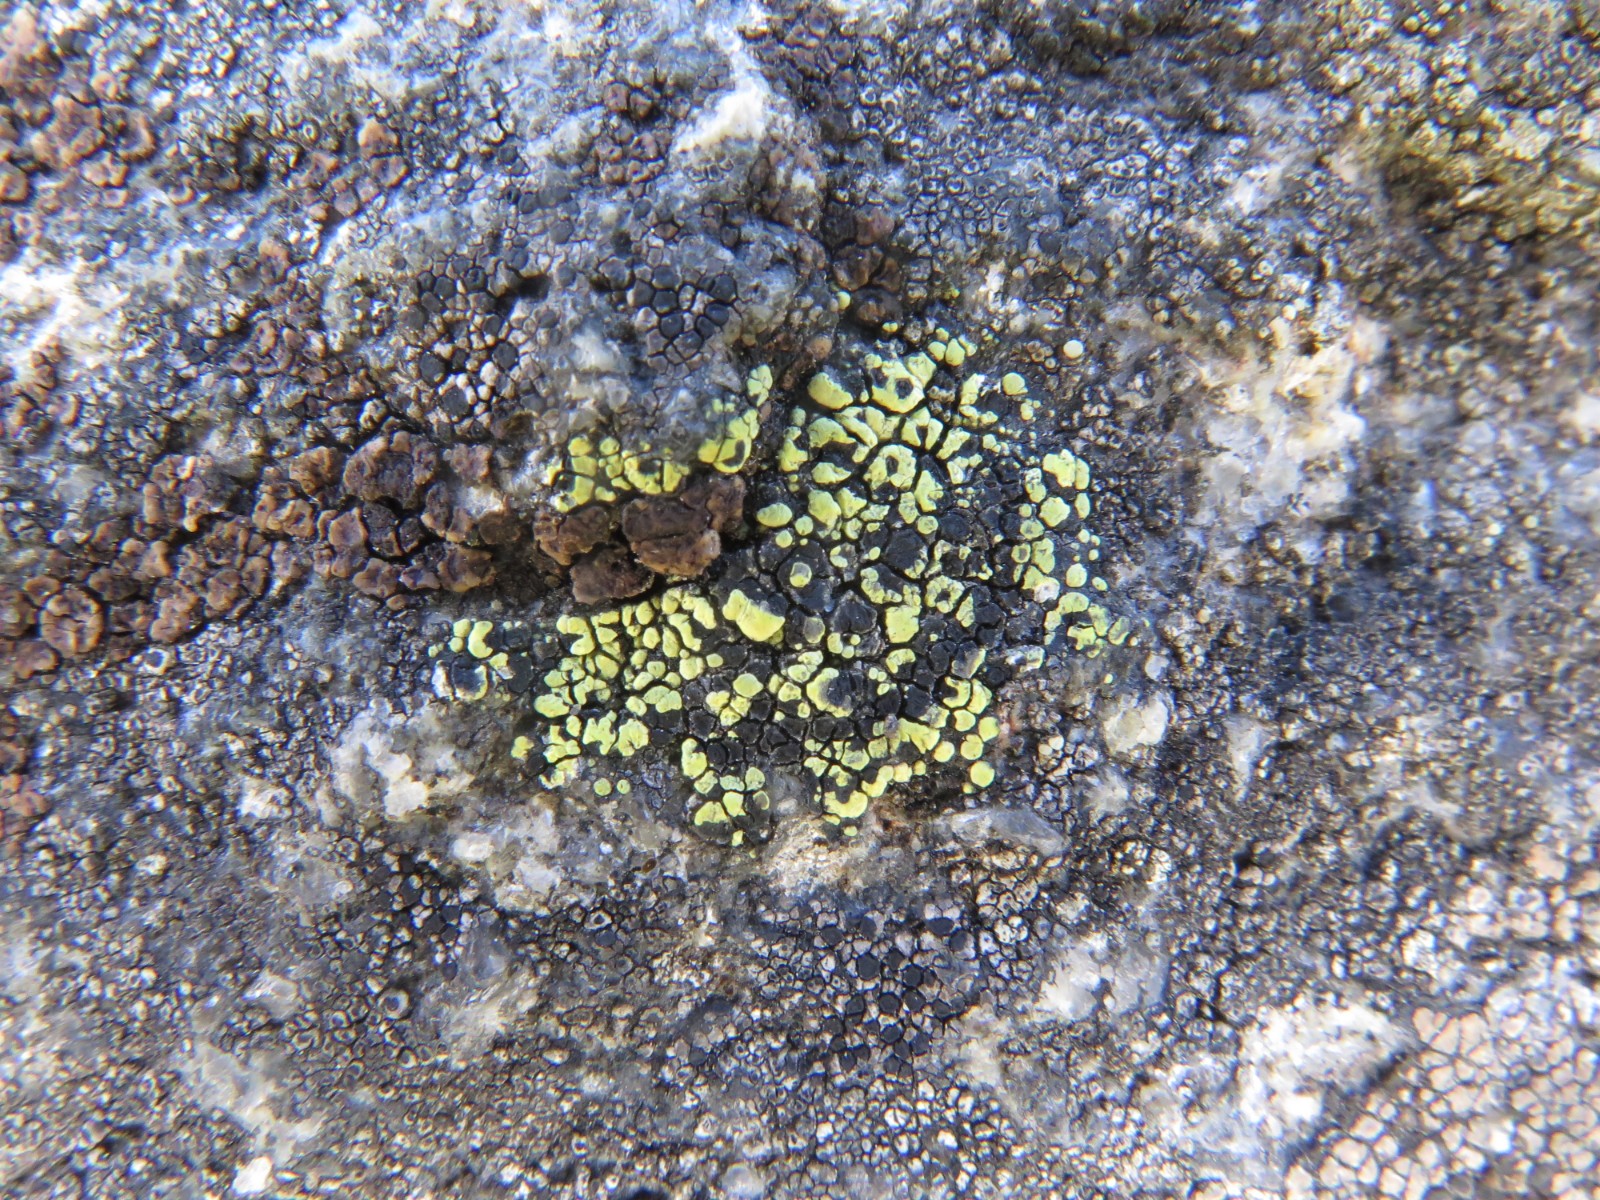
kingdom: Fungi
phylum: Ascomycota
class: Lecanoromycetes
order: Rhizocarpales
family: Rhizocarpaceae
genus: Rhizocarpon
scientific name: Rhizocarpon lecanorinum
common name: krave-landkortlav
